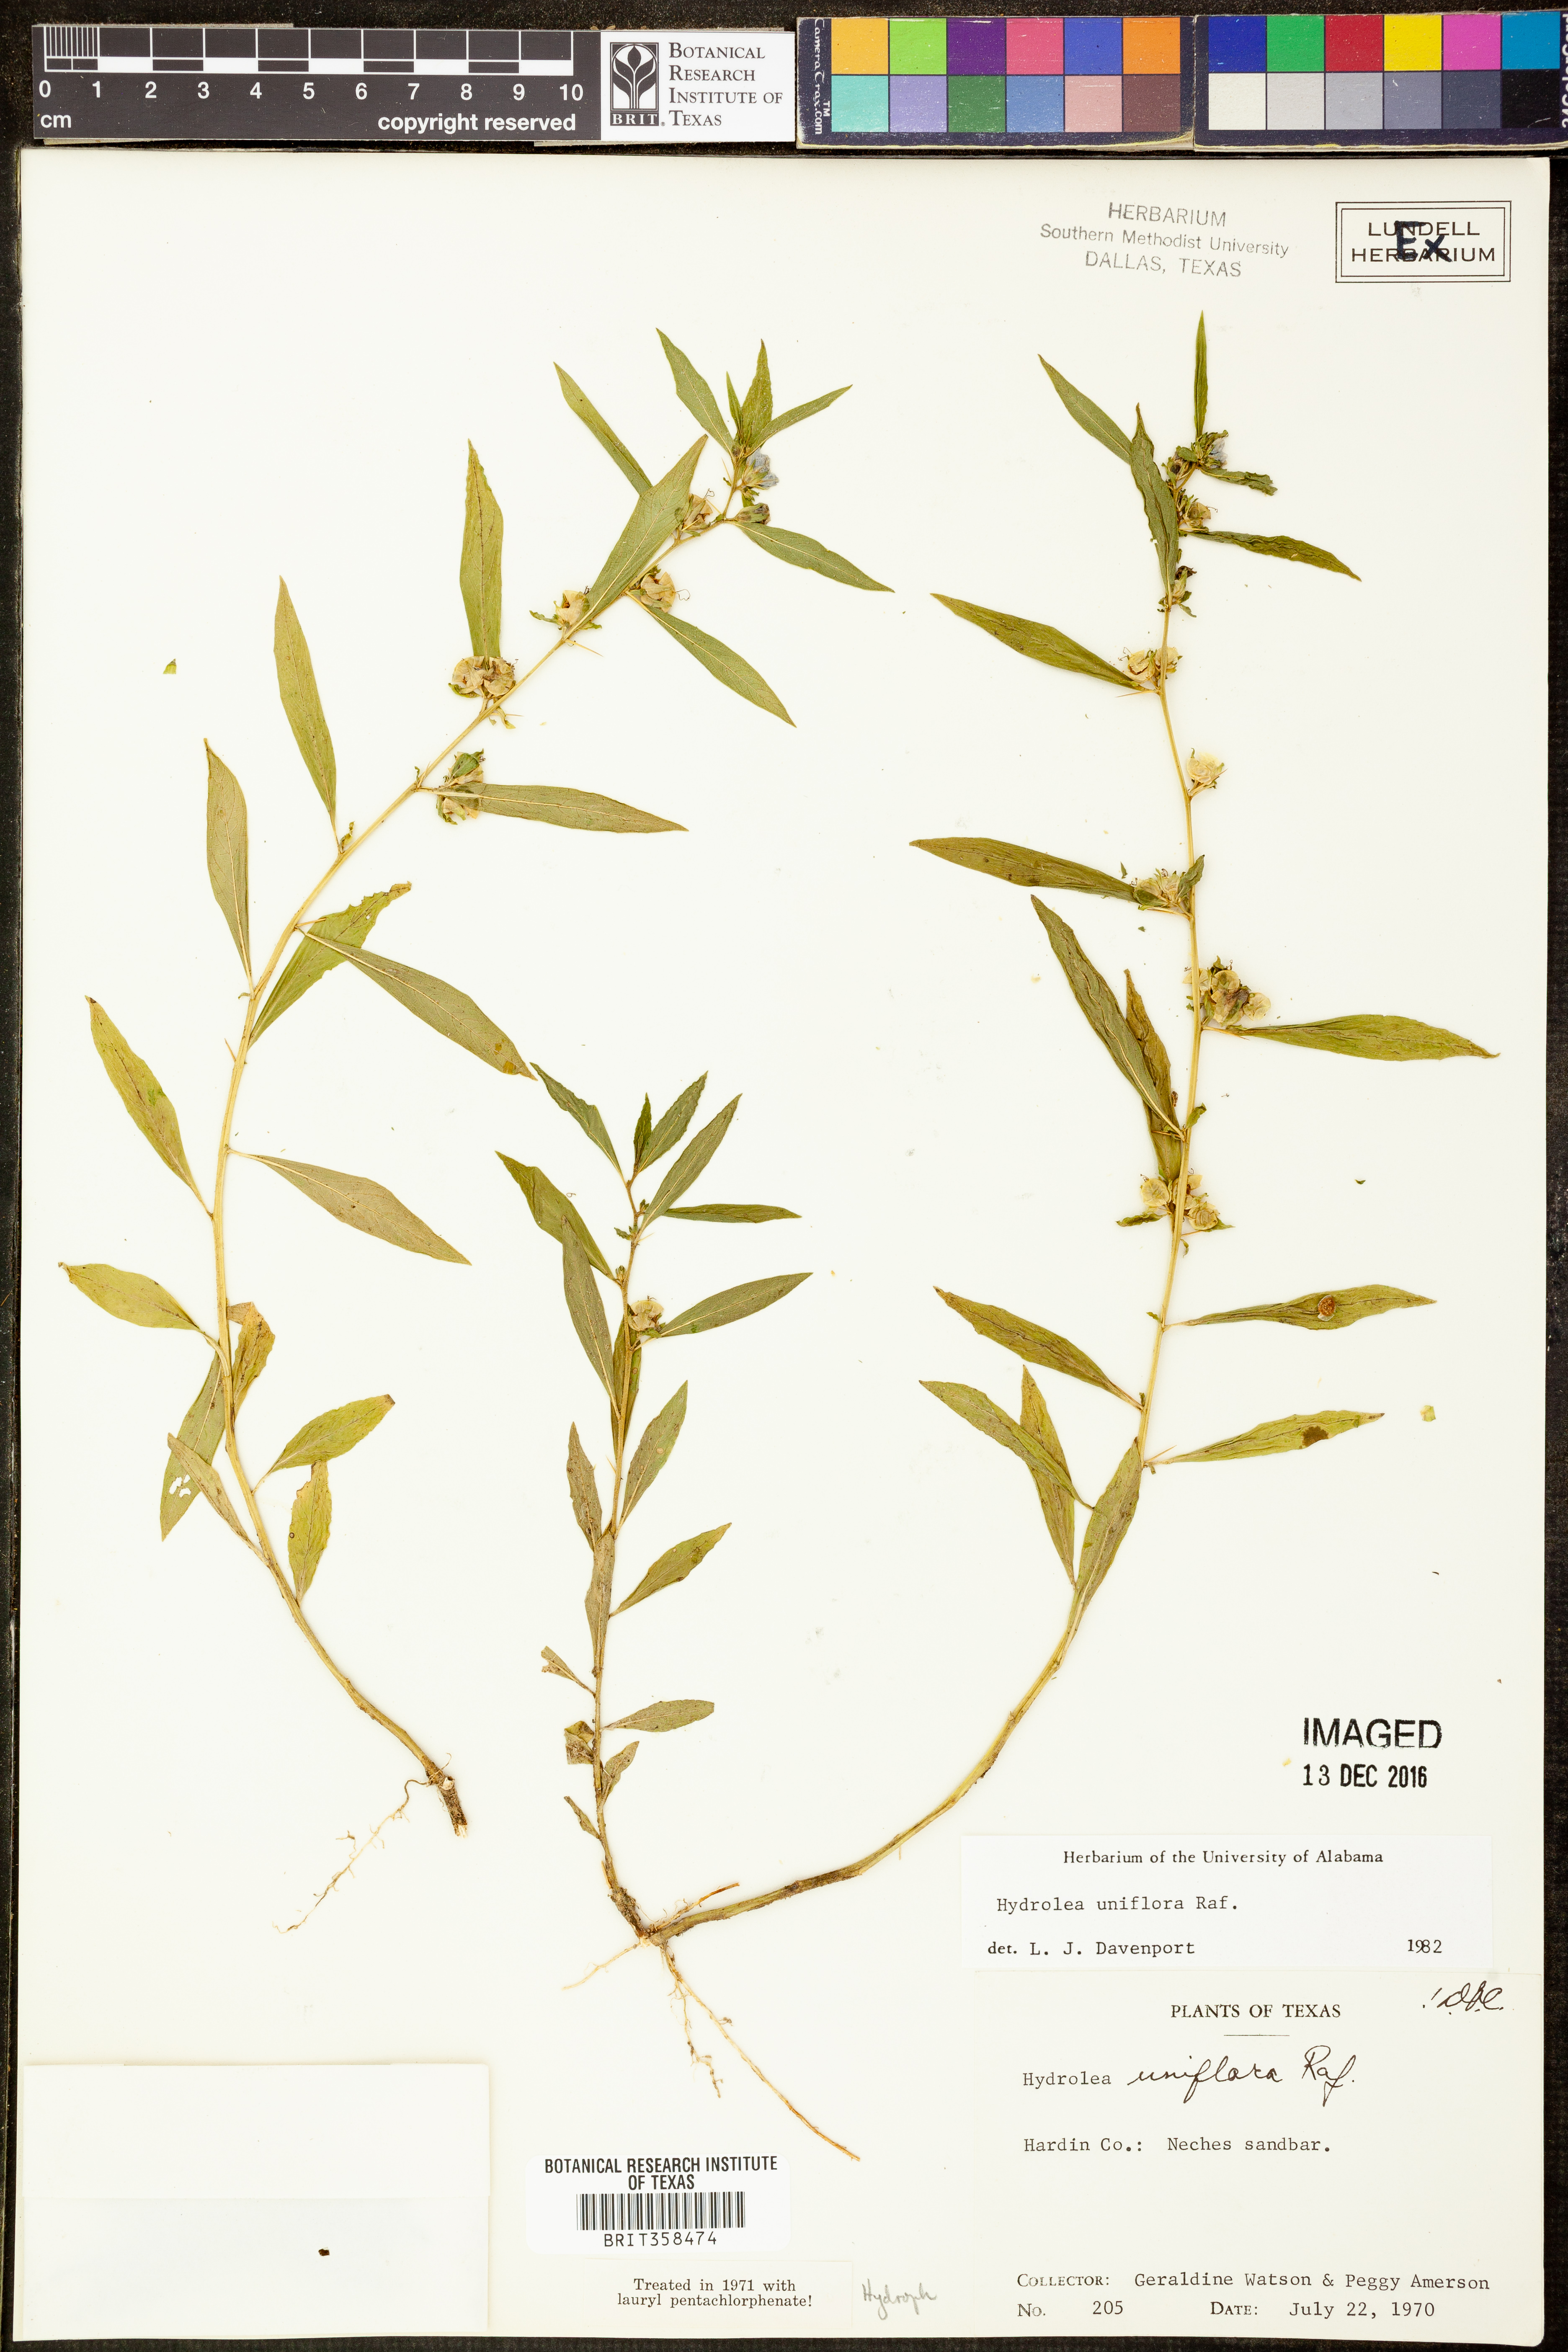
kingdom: Plantae
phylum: Tracheophyta
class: Magnoliopsida
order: Solanales
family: Hydroleaceae
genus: Hydrolea
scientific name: Hydrolea uniflora
